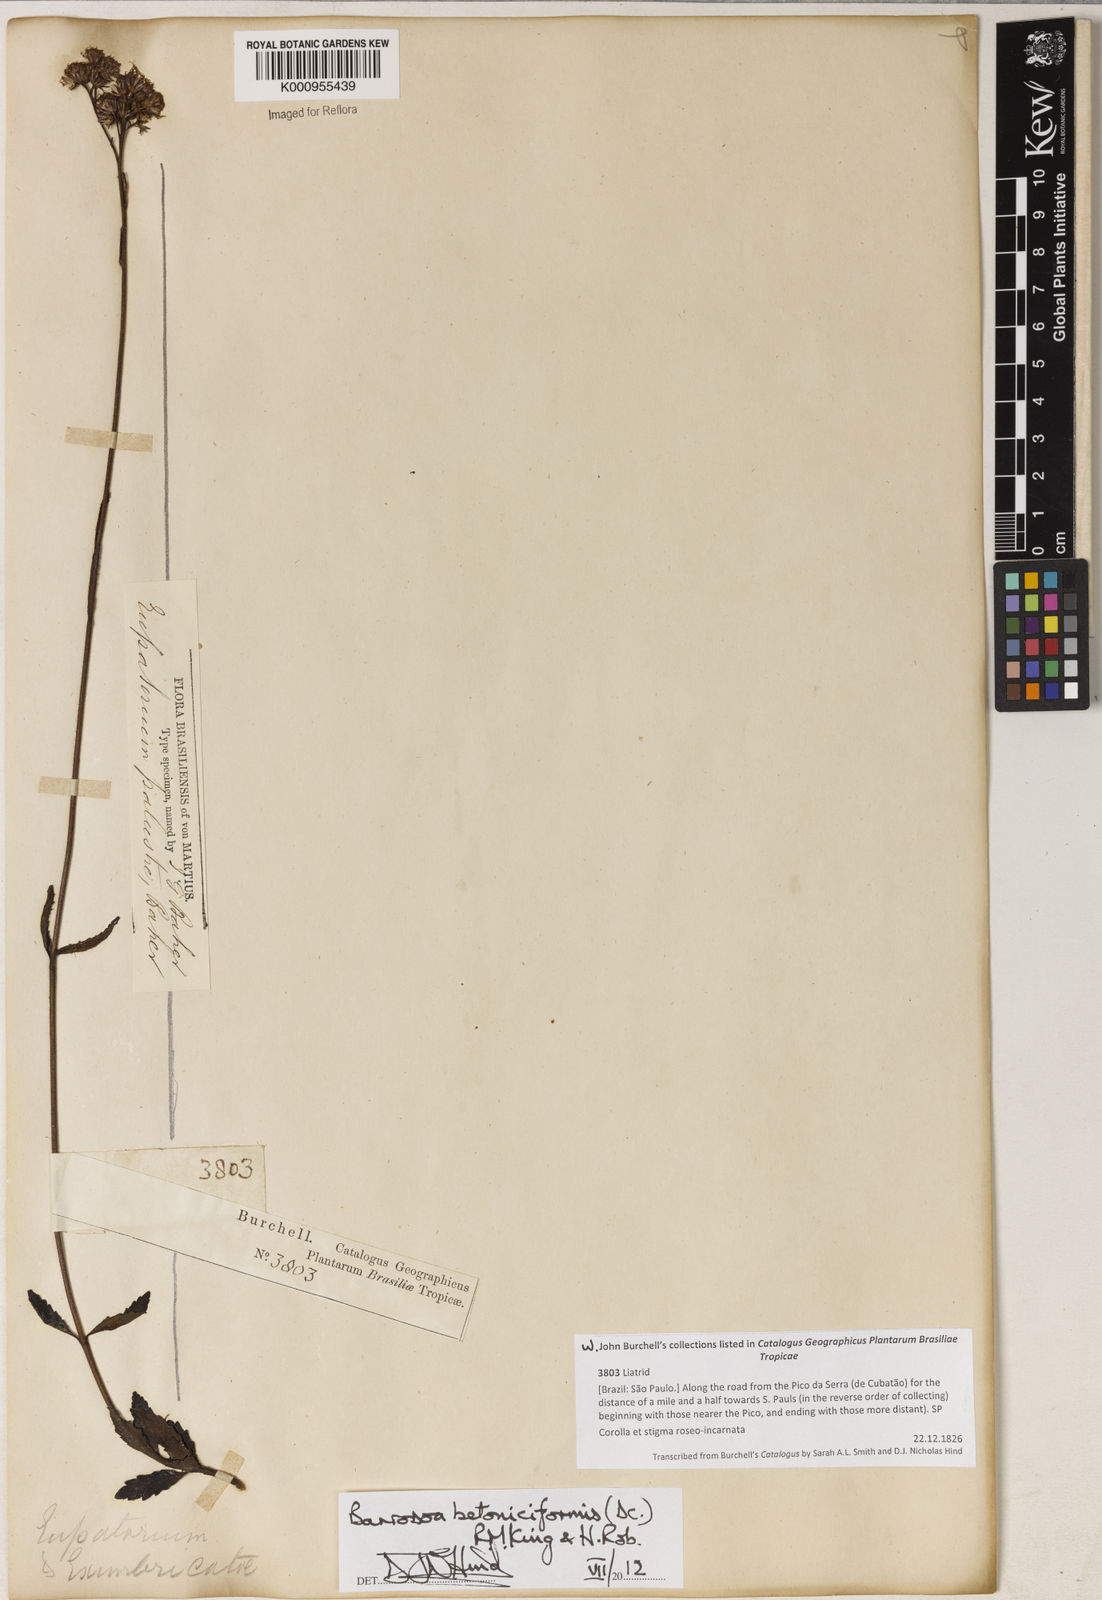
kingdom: Plantae
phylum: Tracheophyta
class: Magnoliopsida
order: Asterales
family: Asteraceae
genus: Barrosoa
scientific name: Barrosoa betoniciformis
